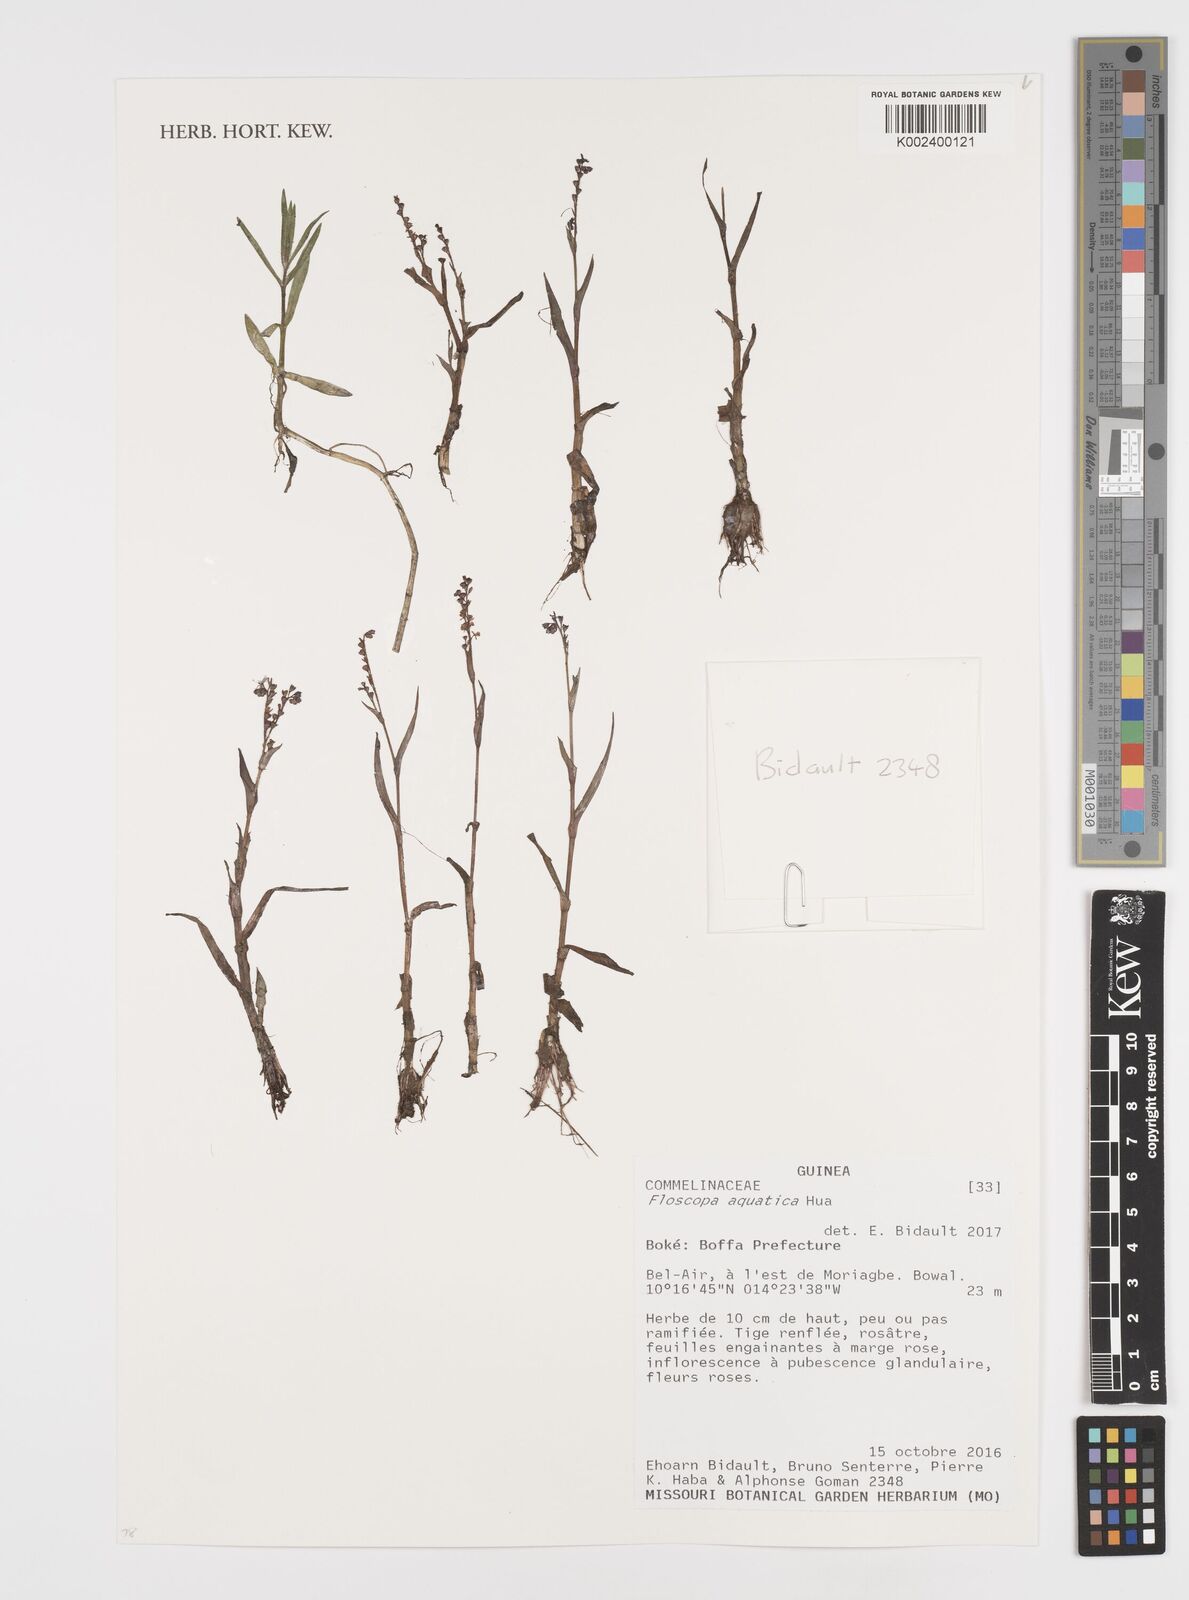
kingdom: Plantae
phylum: Tracheophyta
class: Liliopsida
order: Commelinales
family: Commelinaceae
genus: Floscopa
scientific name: Floscopa aquatica
